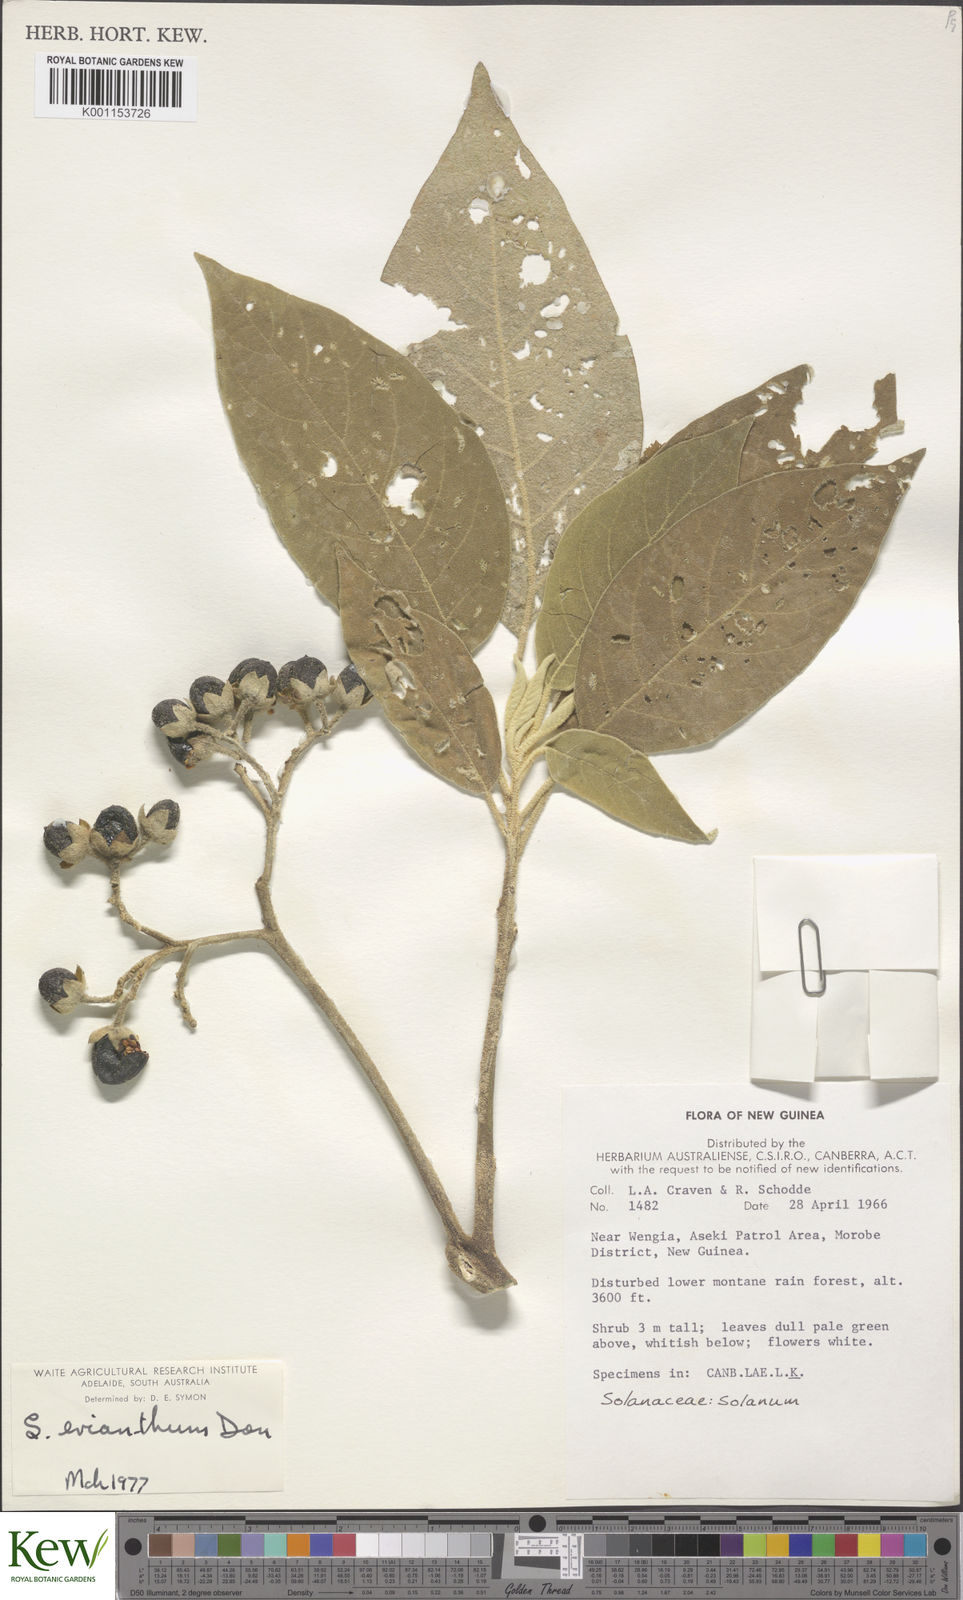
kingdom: Plantae
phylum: Tracheophyta
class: Magnoliopsida
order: Solanales
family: Solanaceae
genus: Solanum
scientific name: Solanum erianthum
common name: Tobacco-tree
